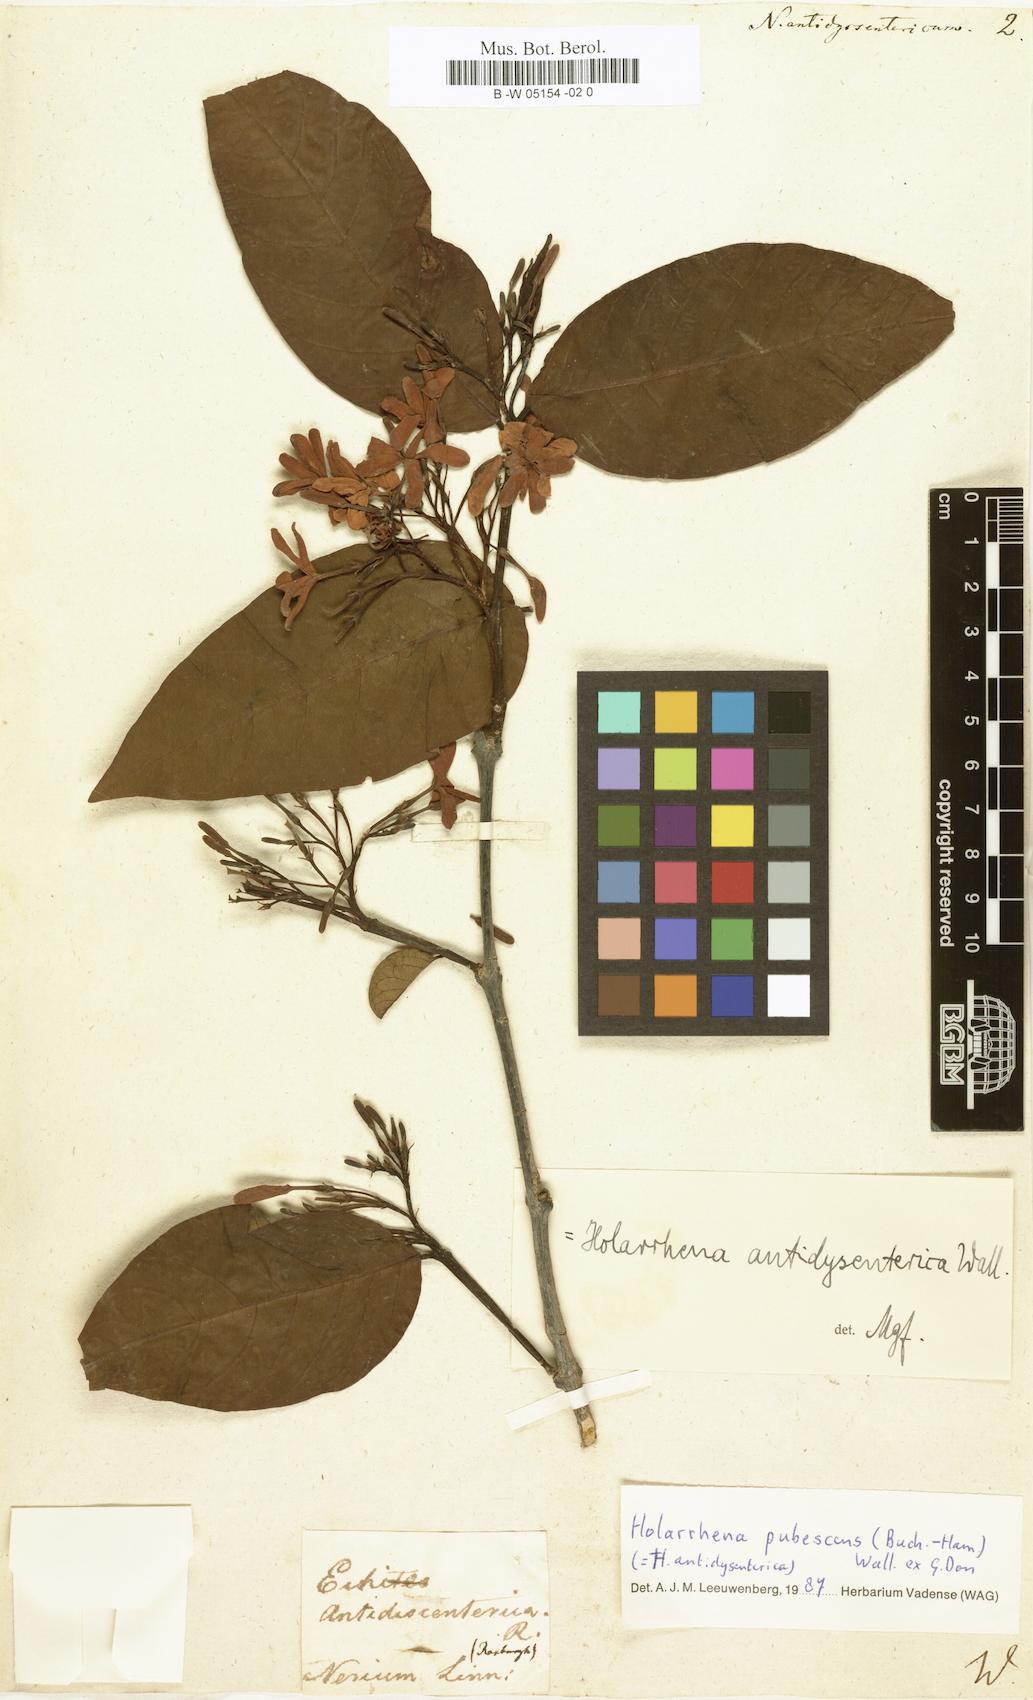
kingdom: Plantae
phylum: Tracheophyta
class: Magnoliopsida
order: Gentianales
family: Apocynaceae
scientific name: Apocynaceae
